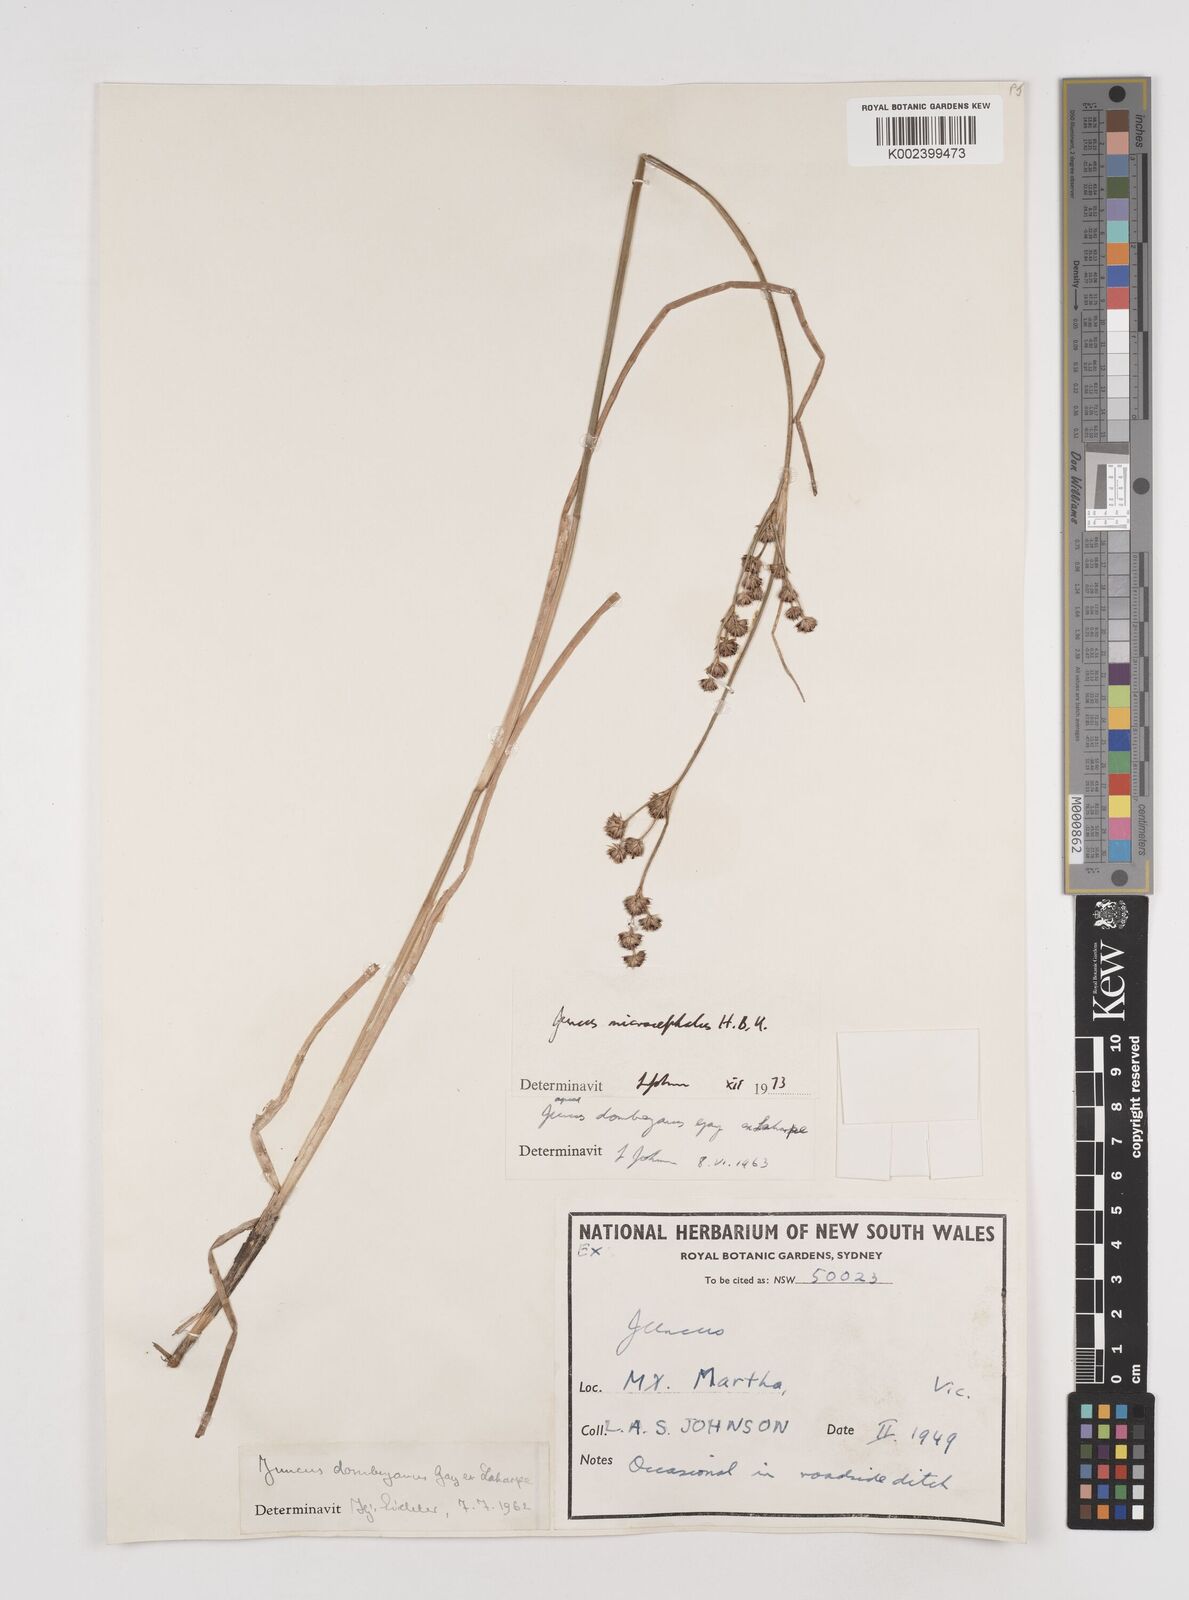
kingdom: Plantae
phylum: Tracheophyta
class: Liliopsida
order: Poales
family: Juncaceae
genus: Juncus
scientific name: Juncus microcephalus
